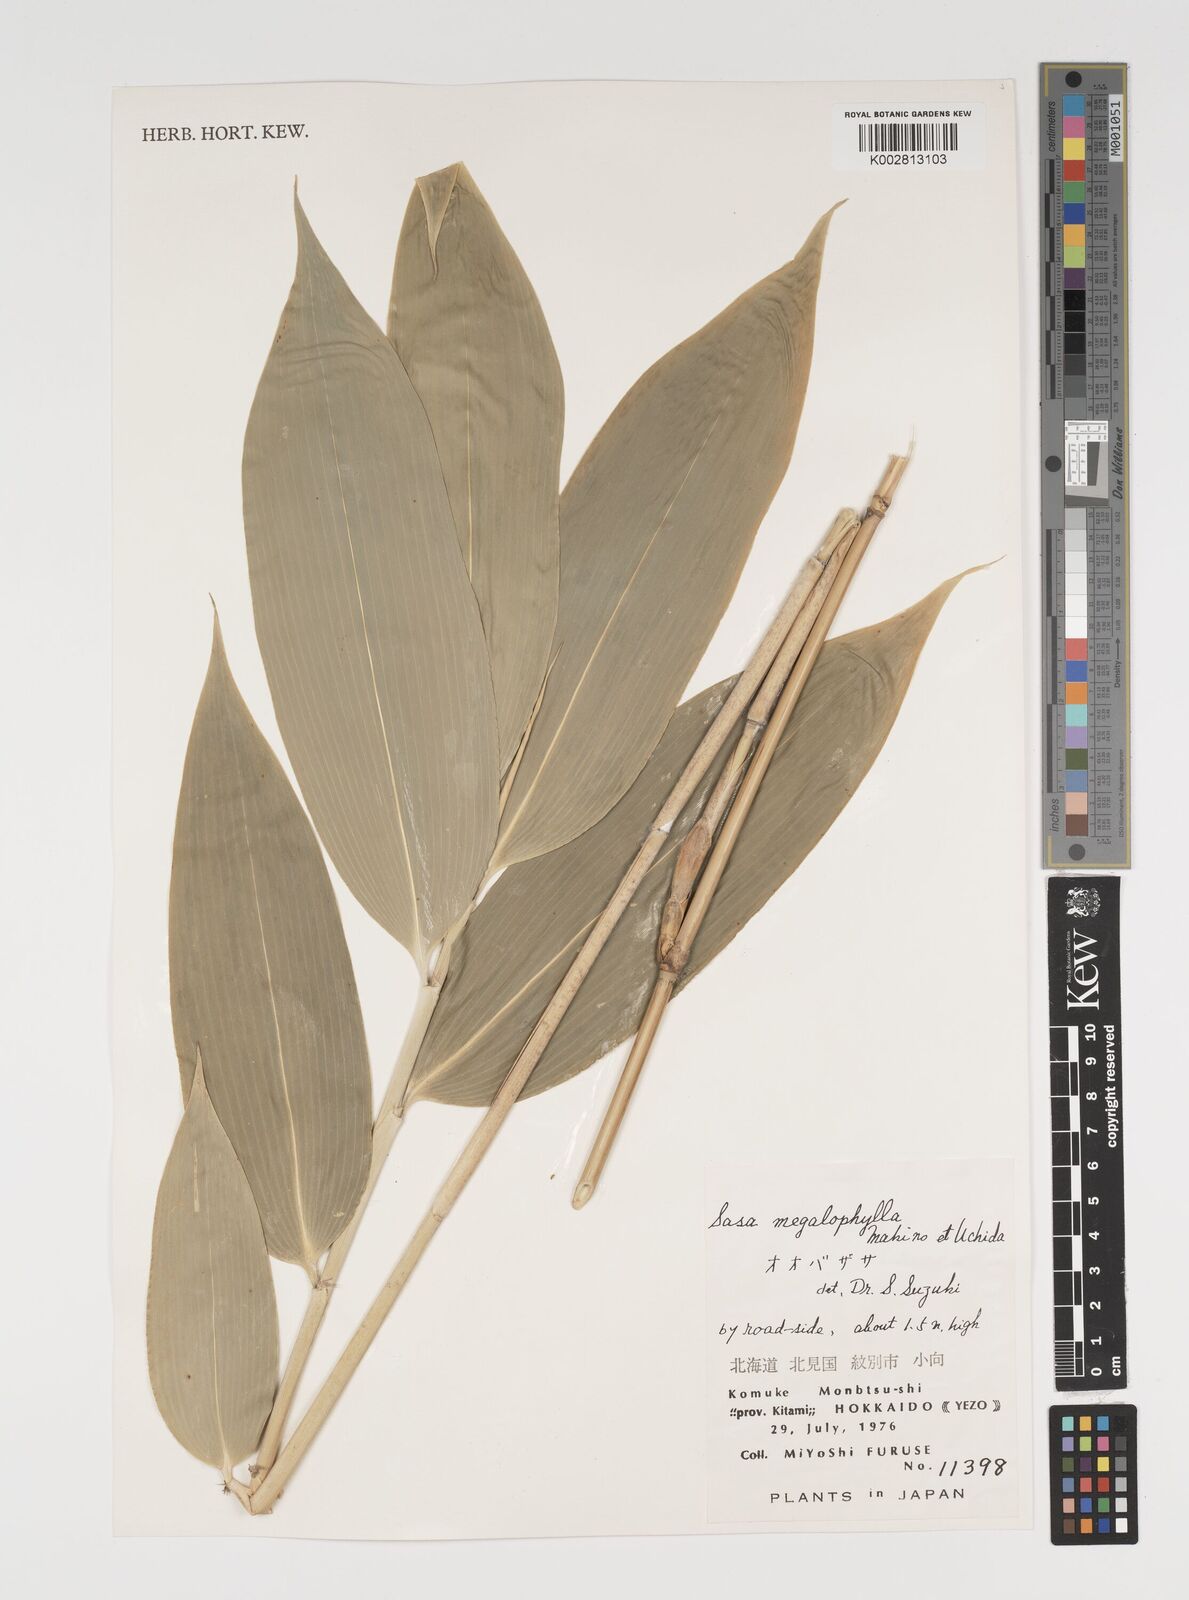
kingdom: Plantae
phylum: Tracheophyta
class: Liliopsida
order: Poales
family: Poaceae
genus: Sasa
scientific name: Sasa megalophylla
